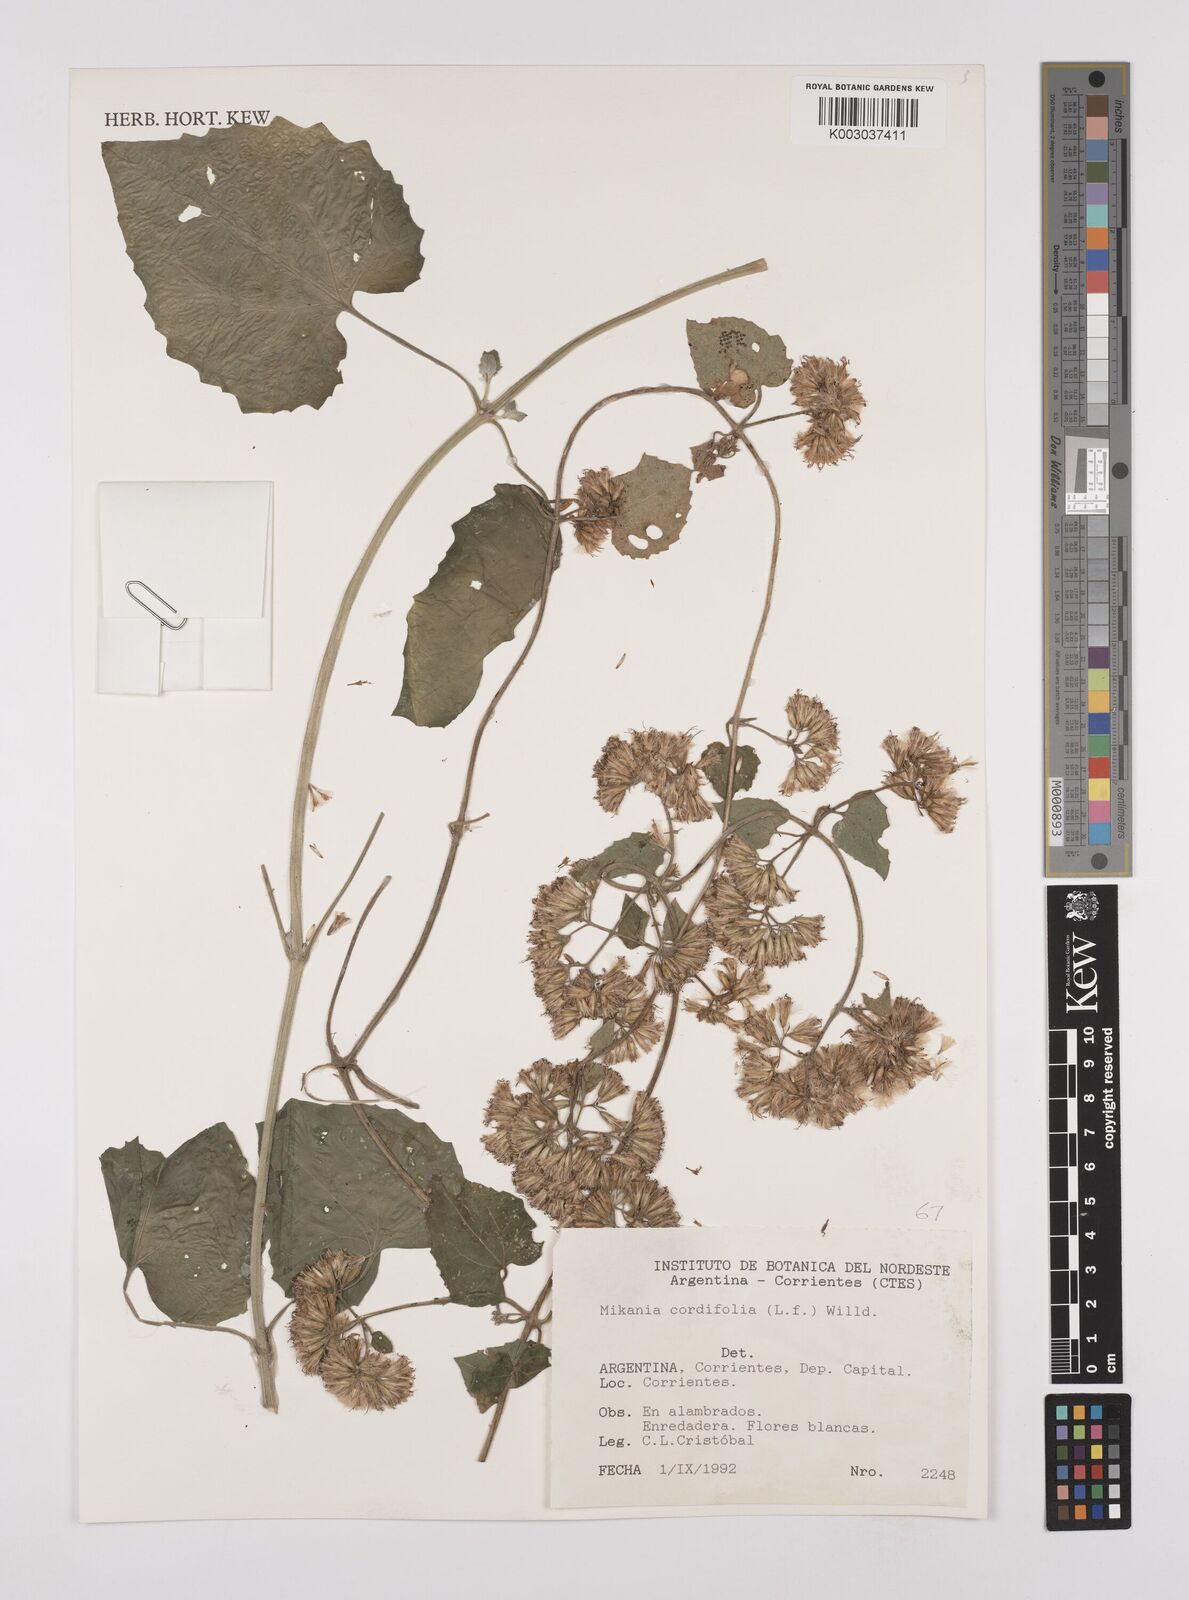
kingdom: Plantae
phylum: Tracheophyta
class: Magnoliopsida
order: Asterales
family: Asteraceae
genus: Mikania
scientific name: Mikania cordifolia
